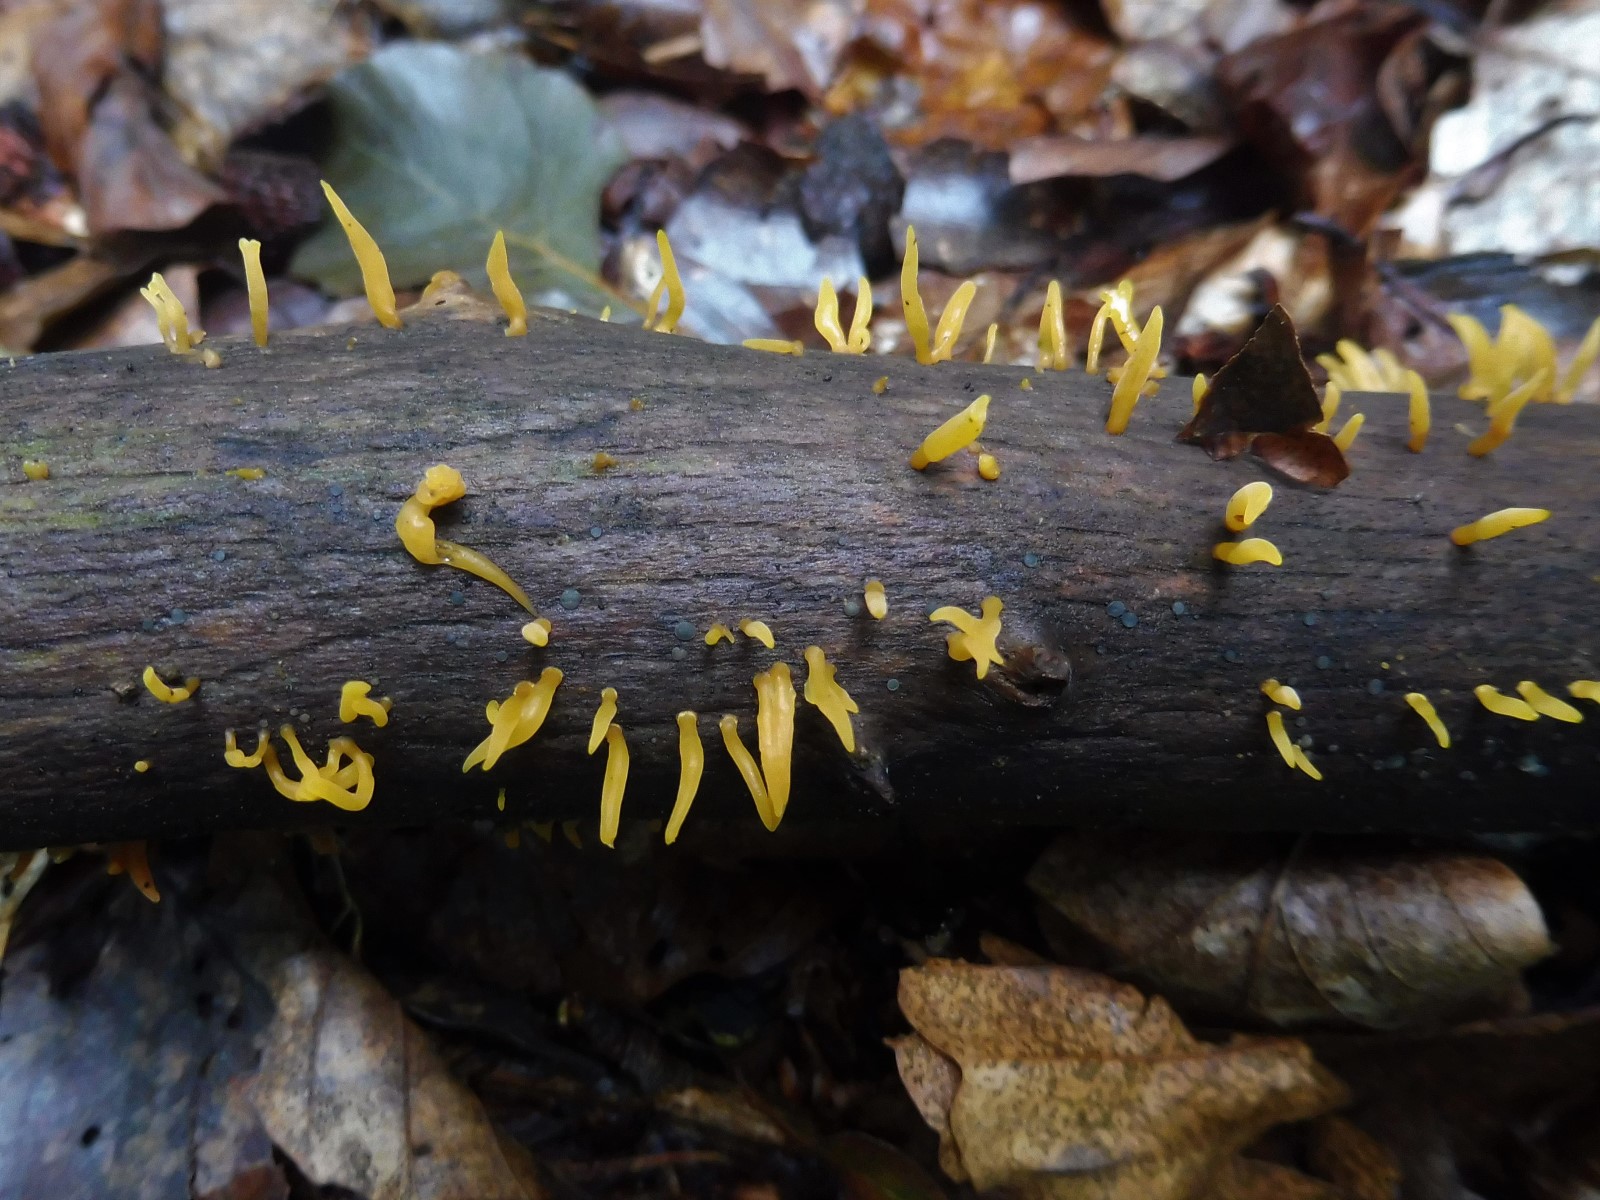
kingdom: Fungi
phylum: Basidiomycota
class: Dacrymycetes
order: Dacrymycetales
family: Dacrymycetaceae
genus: Calocera
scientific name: Calocera cornea
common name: liden guldgaffel
